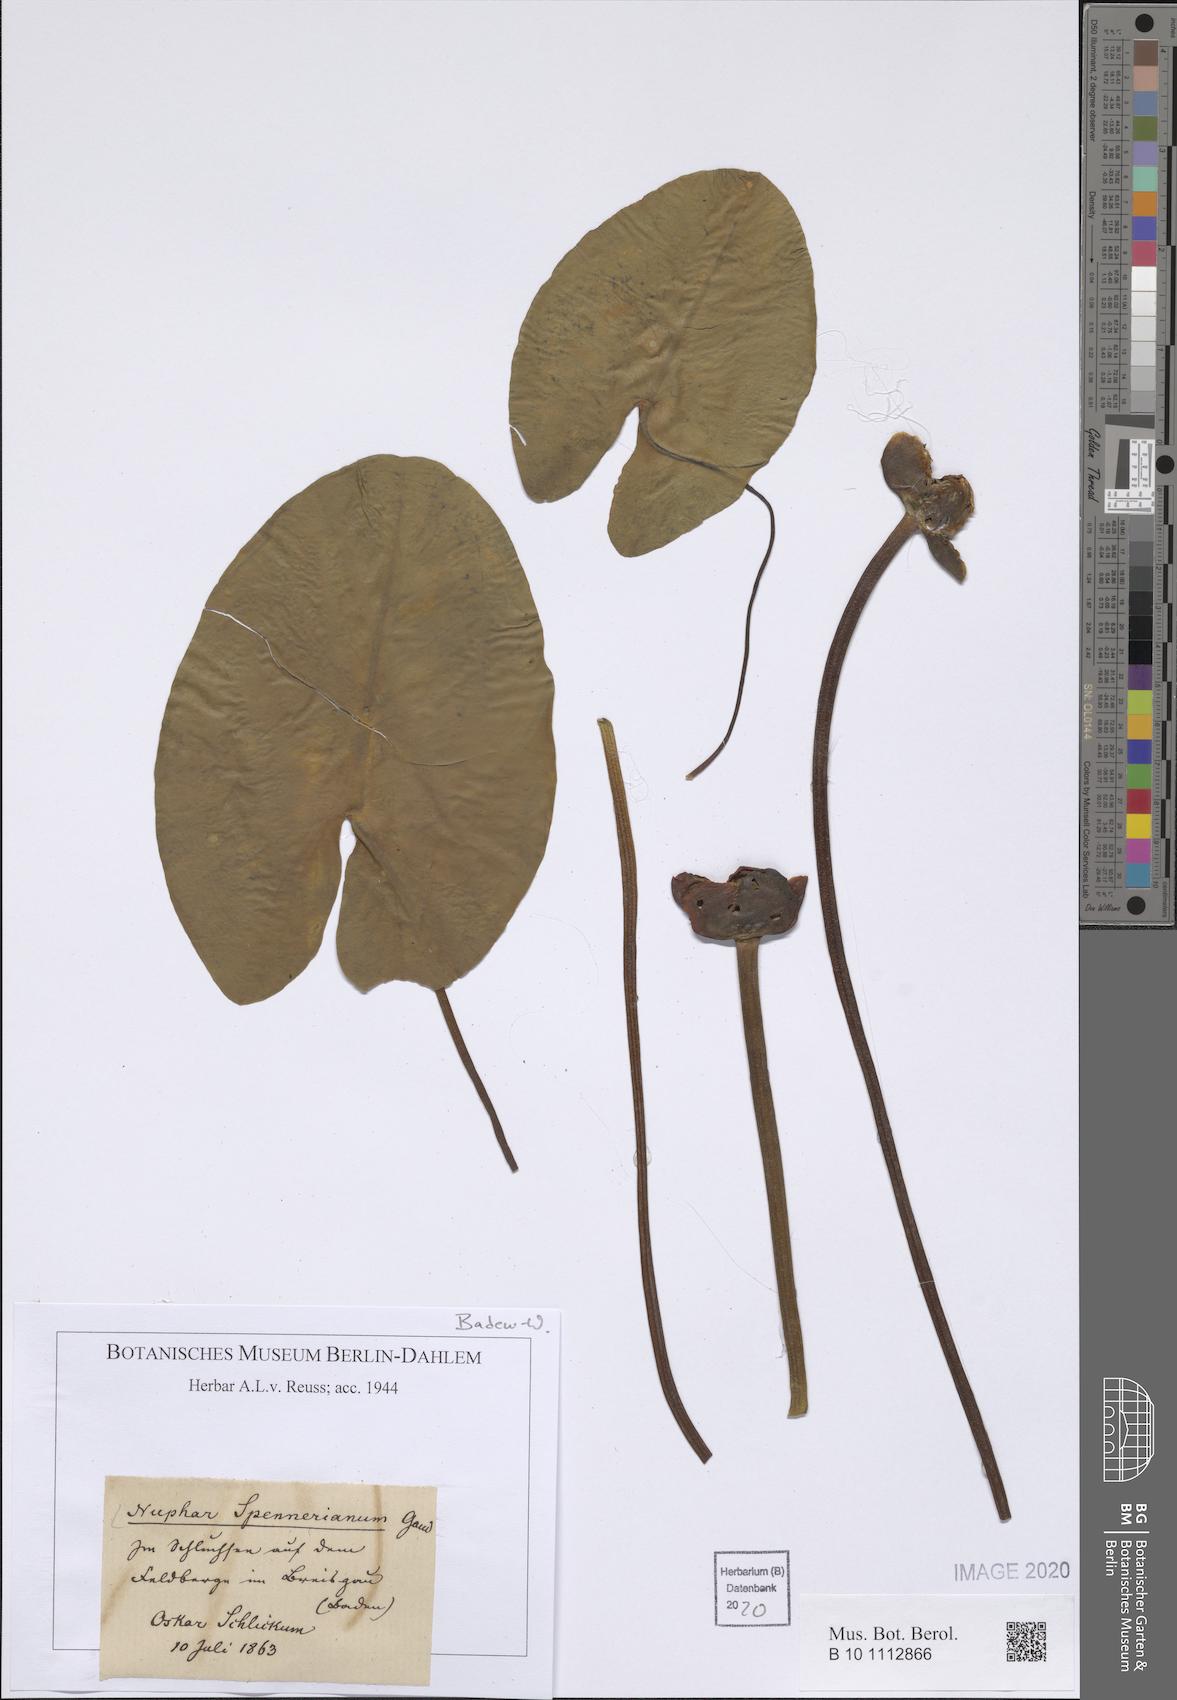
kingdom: Plantae
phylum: Tracheophyta
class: Magnoliopsida
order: Nymphaeales
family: Nymphaeaceae
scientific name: Nymphaeaceae
